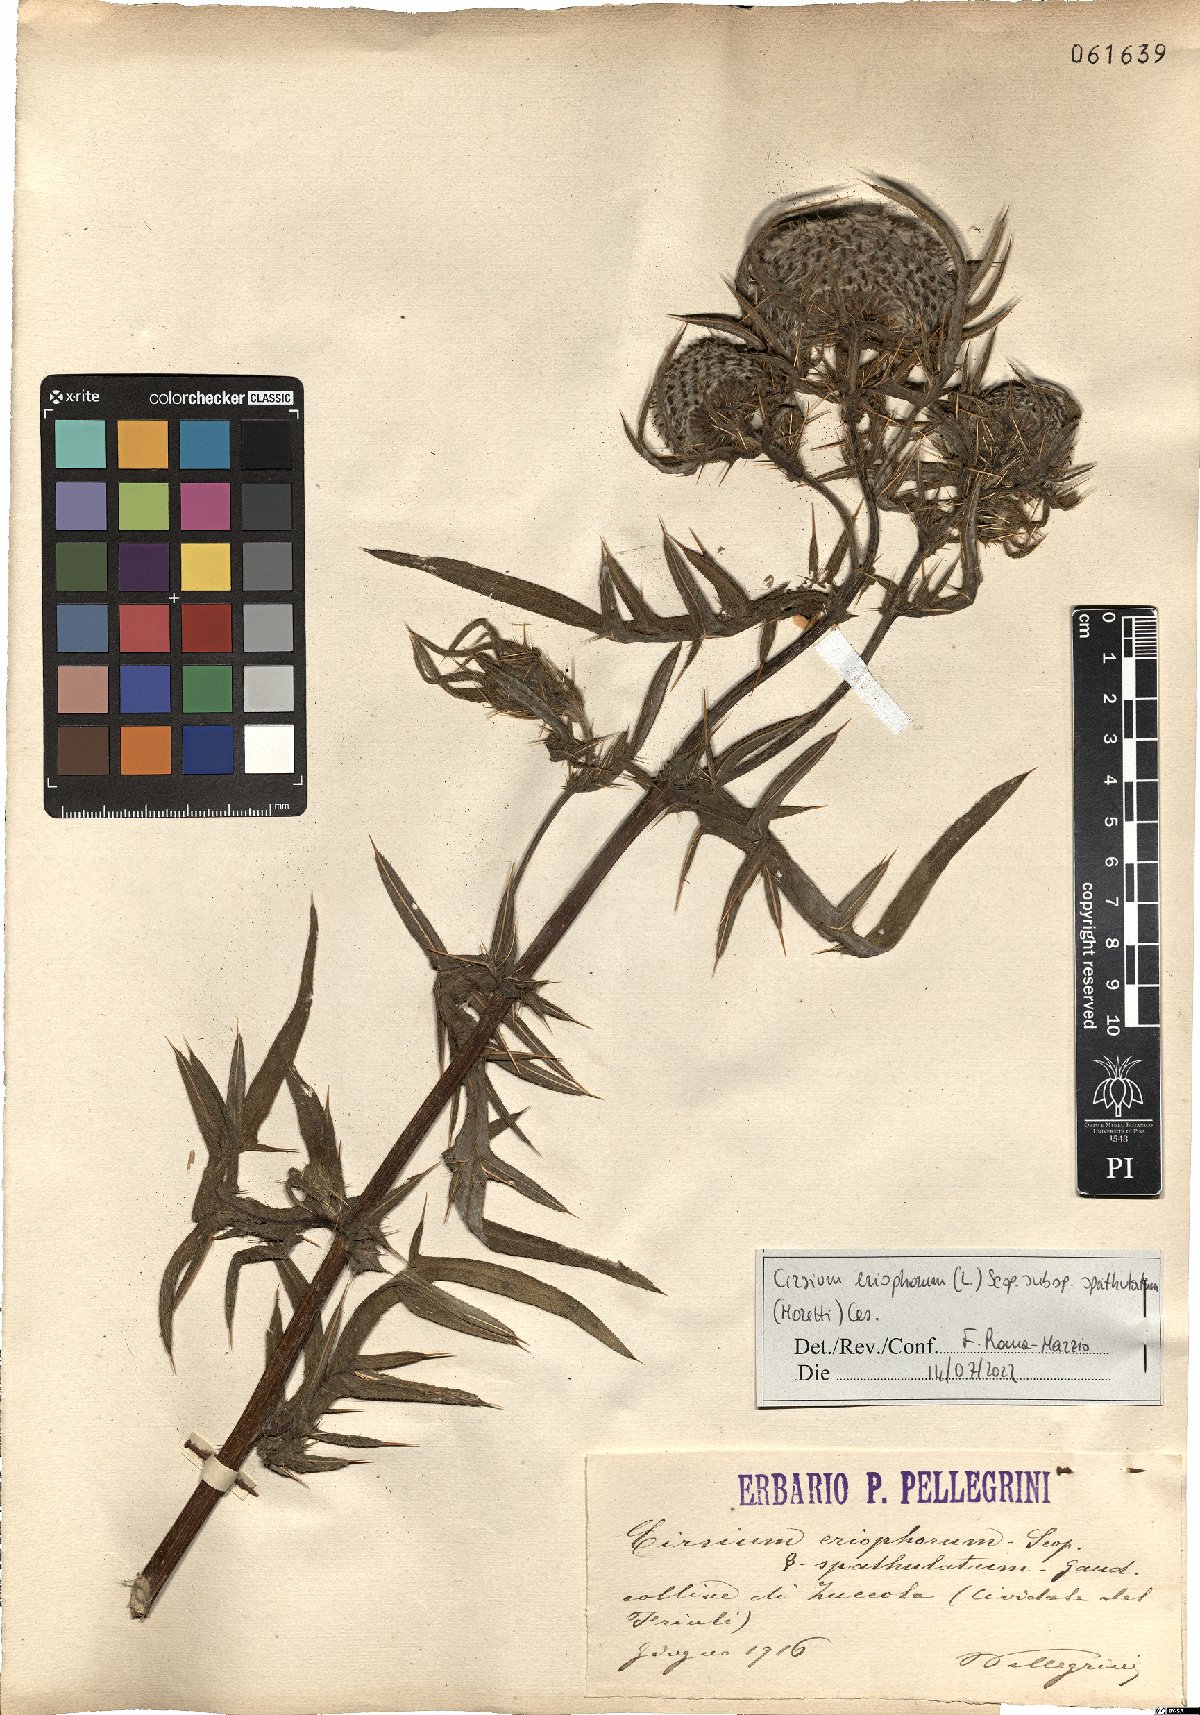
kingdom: Plantae
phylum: Tracheophyta
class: Magnoliopsida
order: Asterales
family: Asteraceae
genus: Lophiolepis
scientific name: Lophiolepis spathulata
